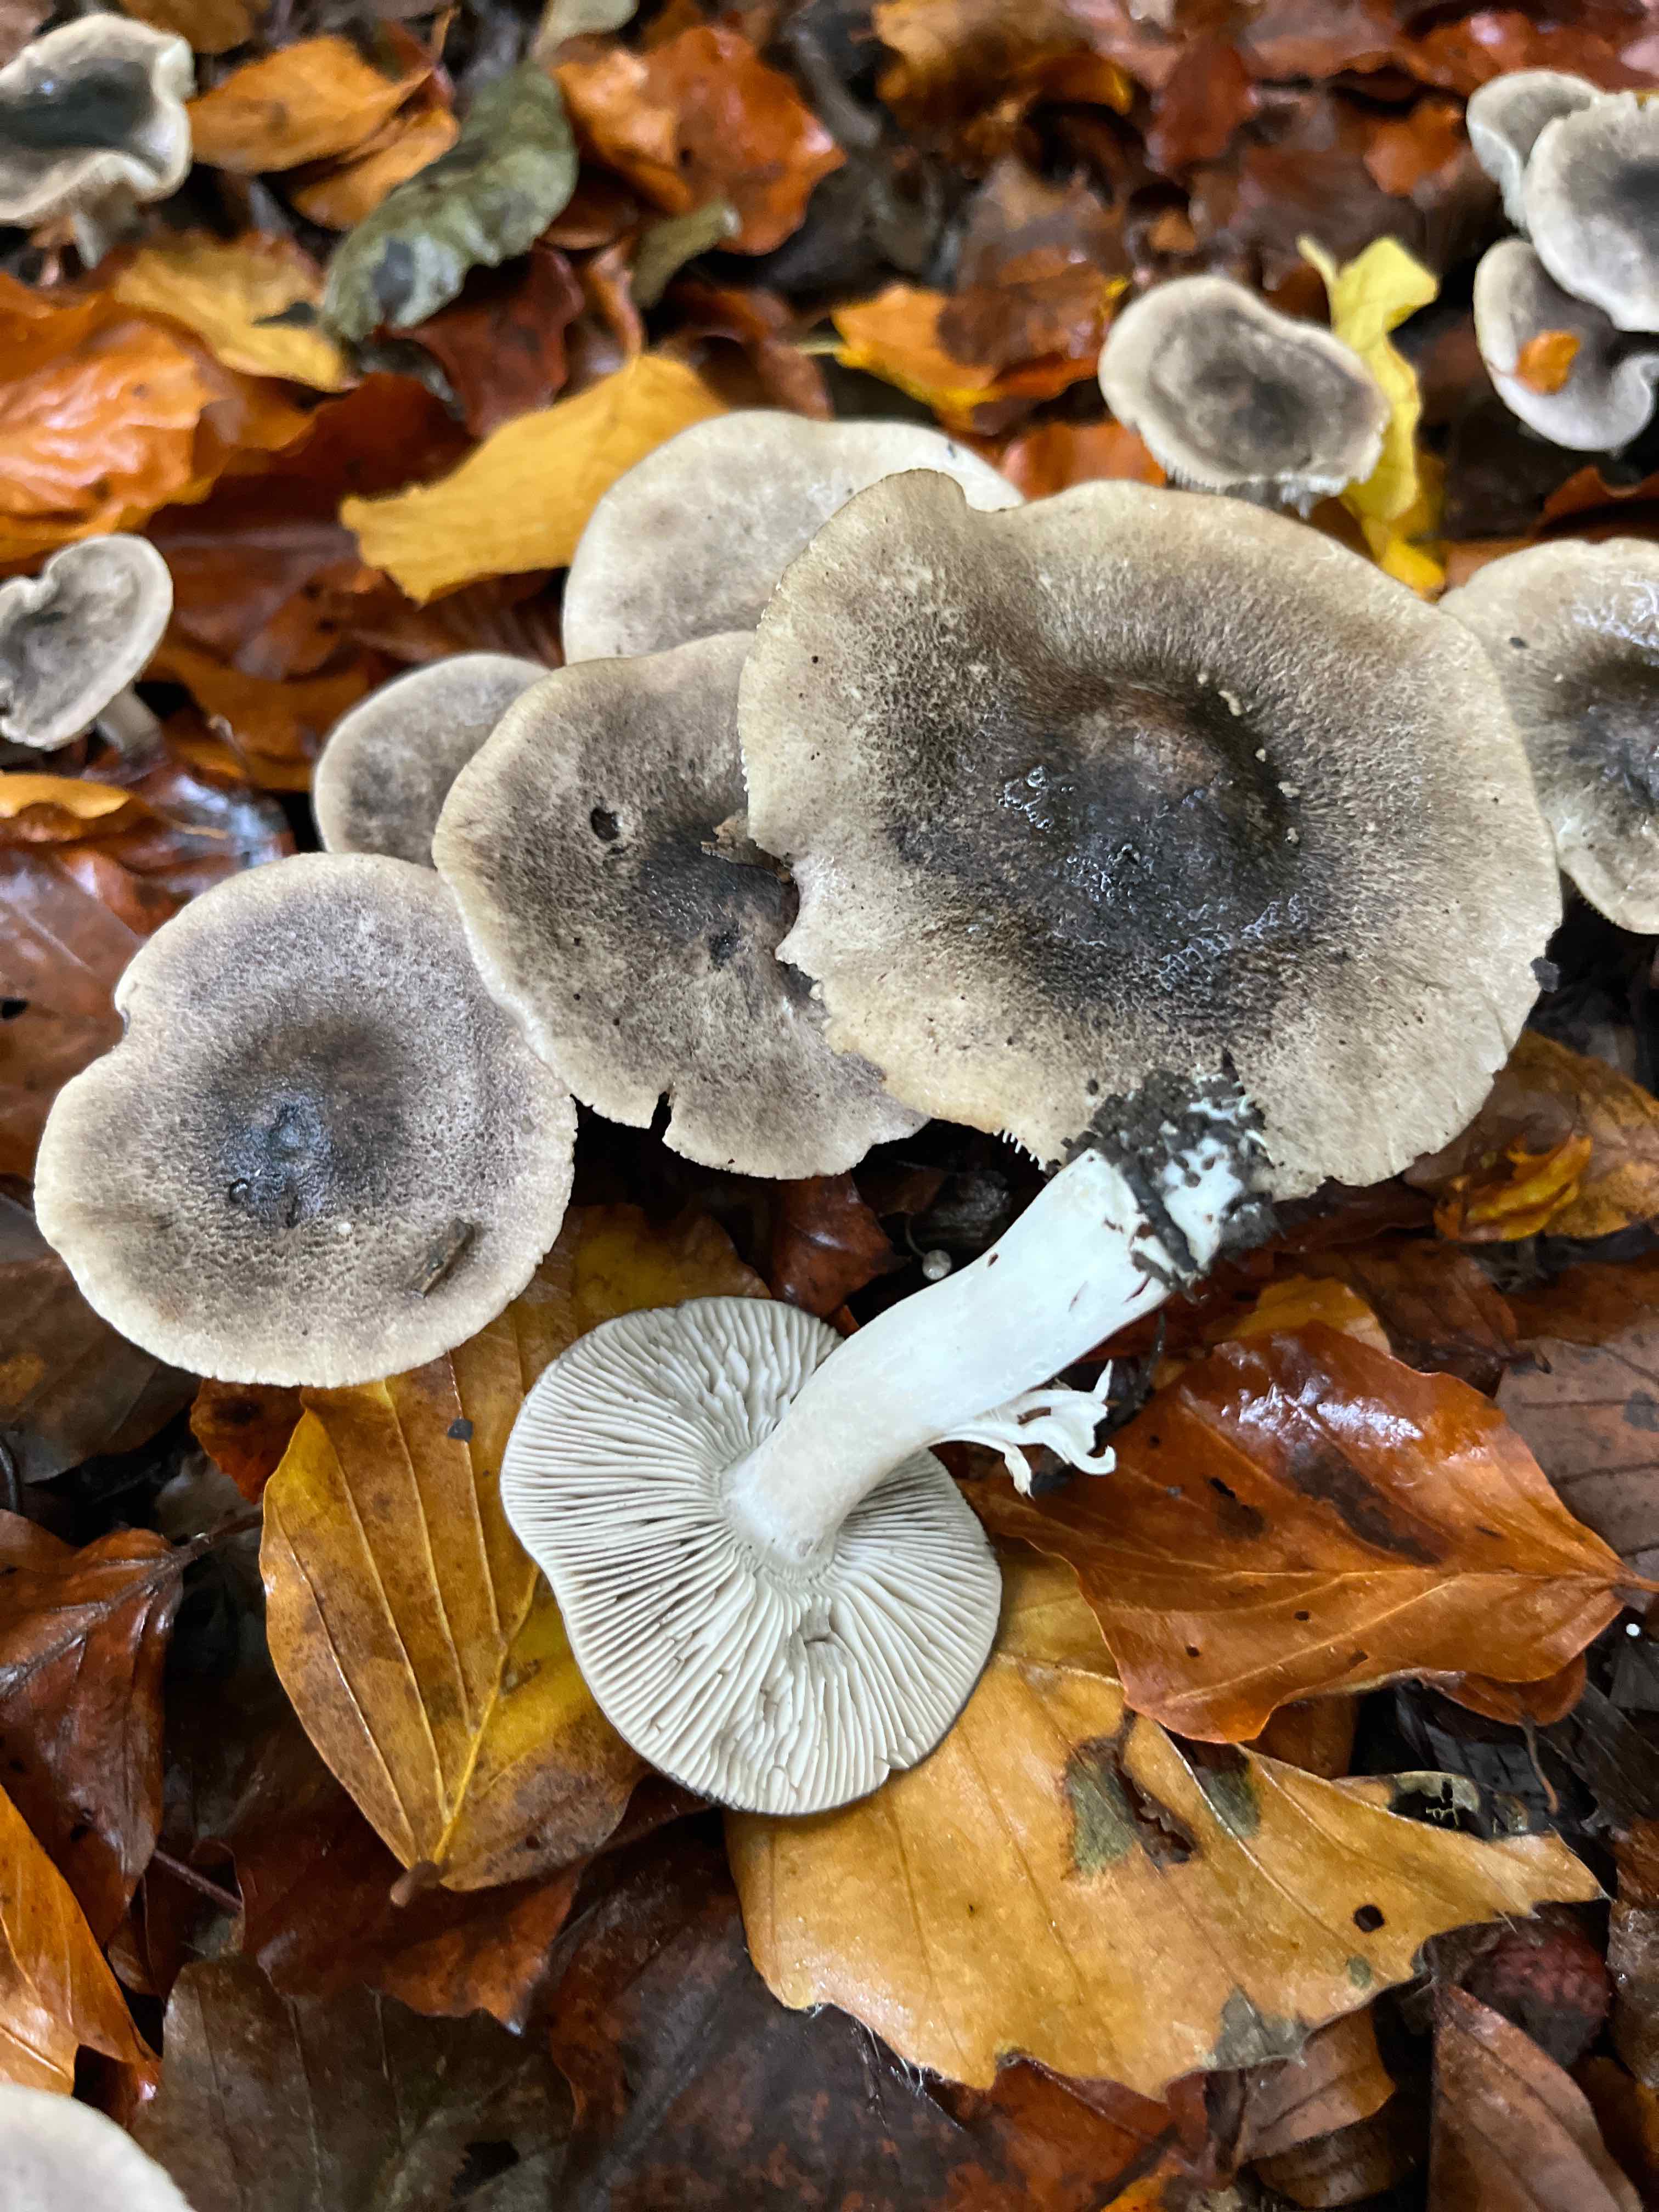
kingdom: Fungi
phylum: Basidiomycota
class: Agaricomycetes
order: Agaricales
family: Tricholomataceae
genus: Tricholoma
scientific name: Tricholoma
